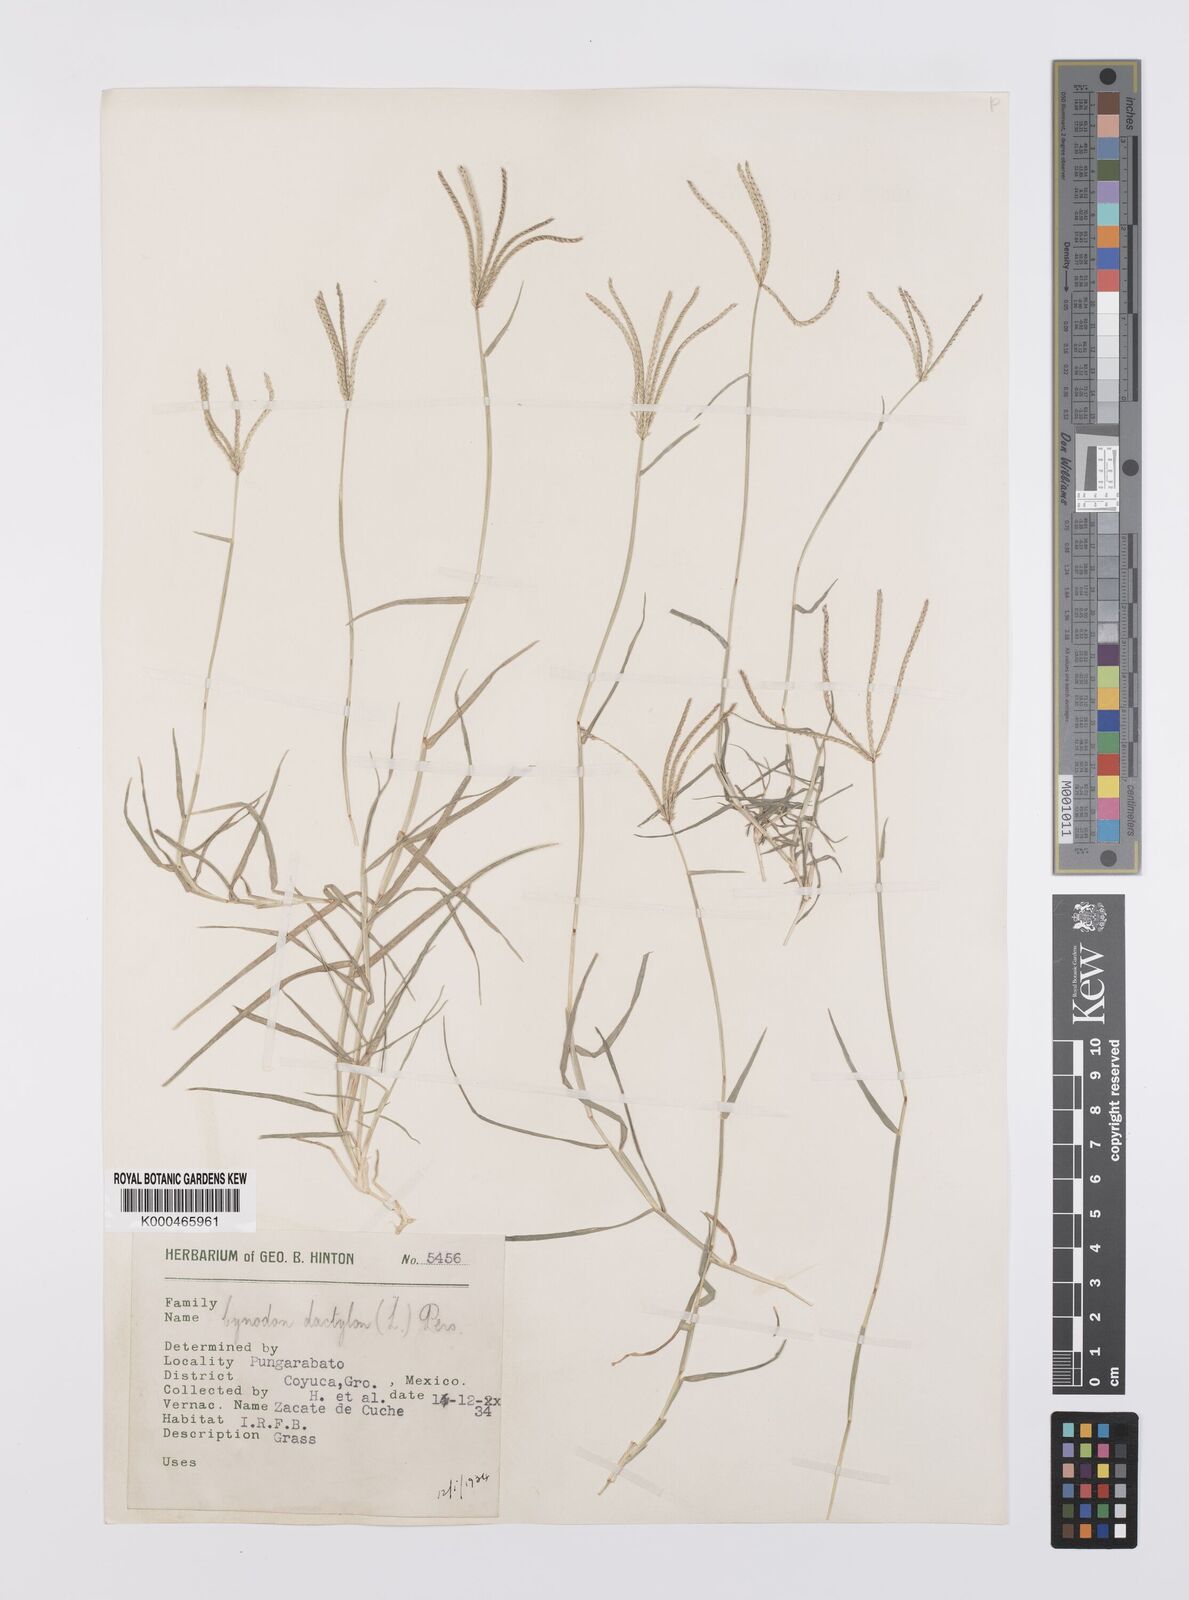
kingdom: Plantae
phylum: Tracheophyta
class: Liliopsida
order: Poales
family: Poaceae
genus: Cynodon
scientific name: Cynodon dactylon
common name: Bermuda grass
